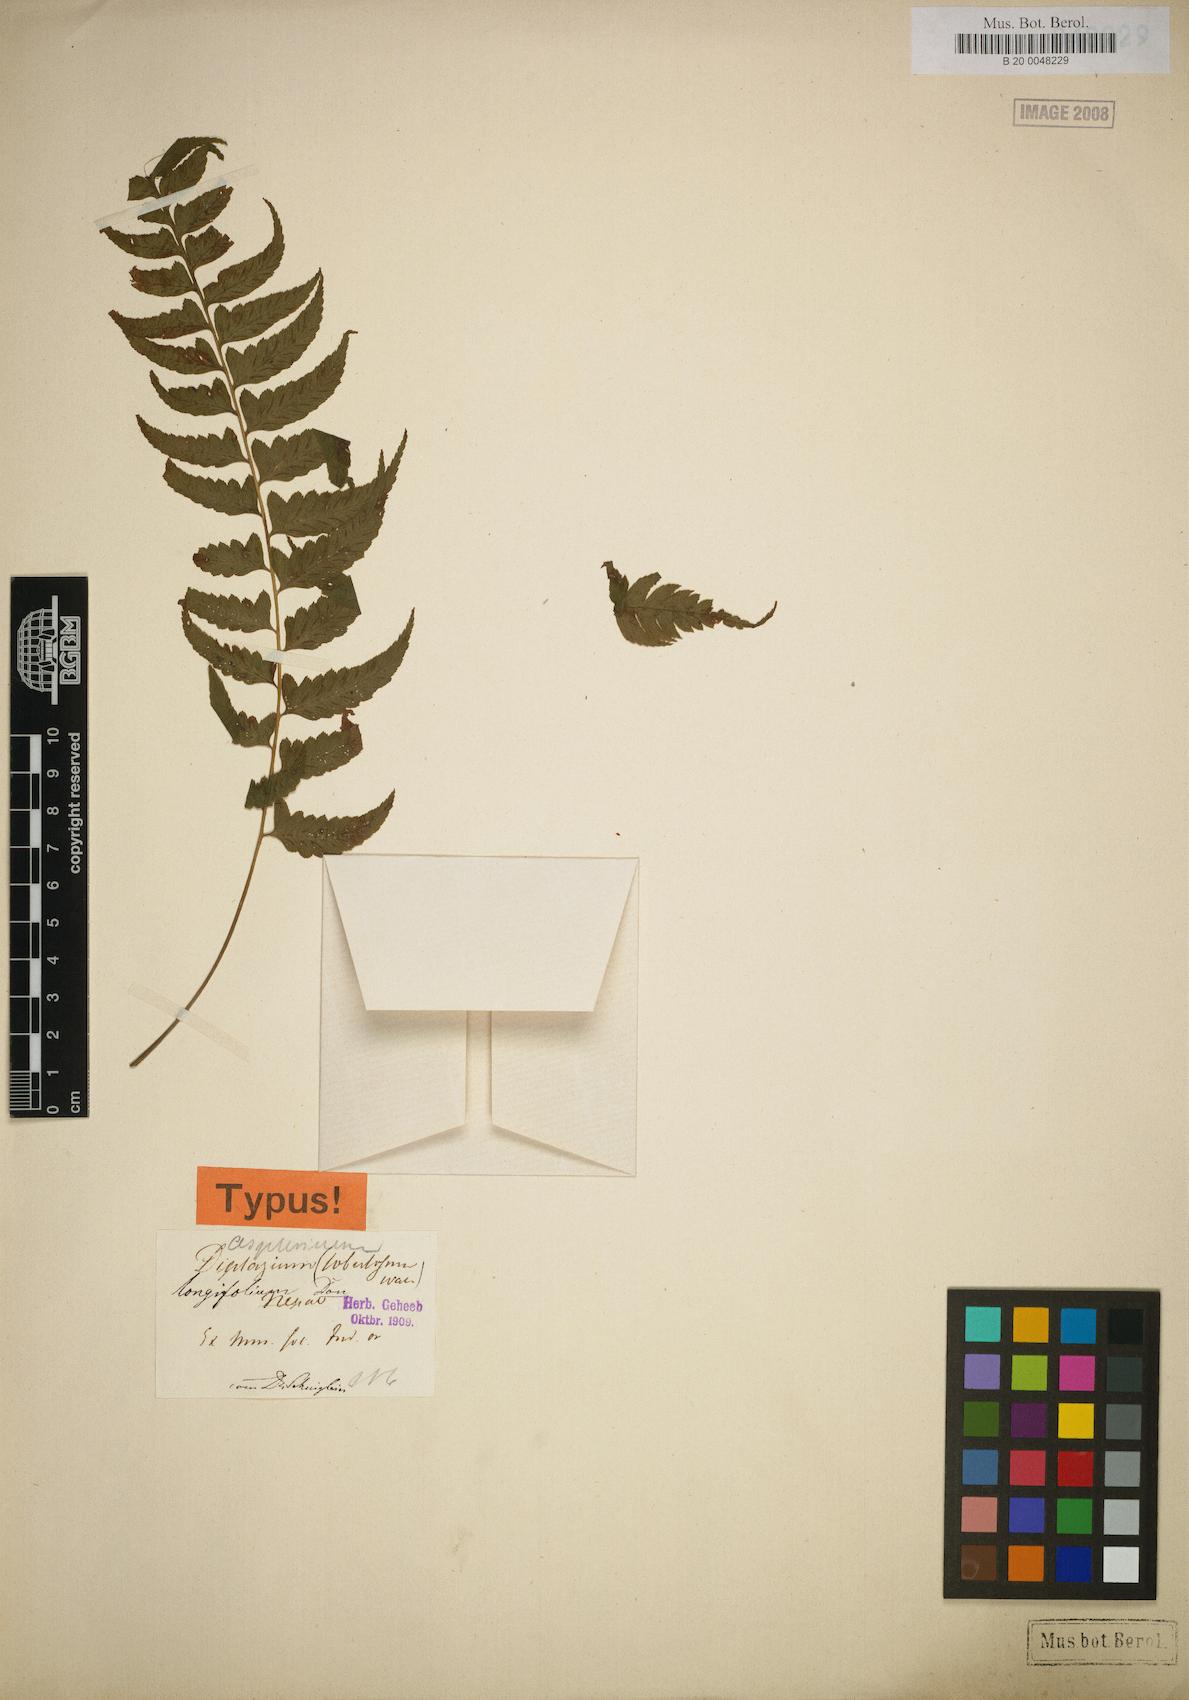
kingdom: Plantae
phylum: Tracheophyta
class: Polypodiopsida
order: Polypodiales
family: Athyriaceae
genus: Diplazium
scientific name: Diplazium longifolium
